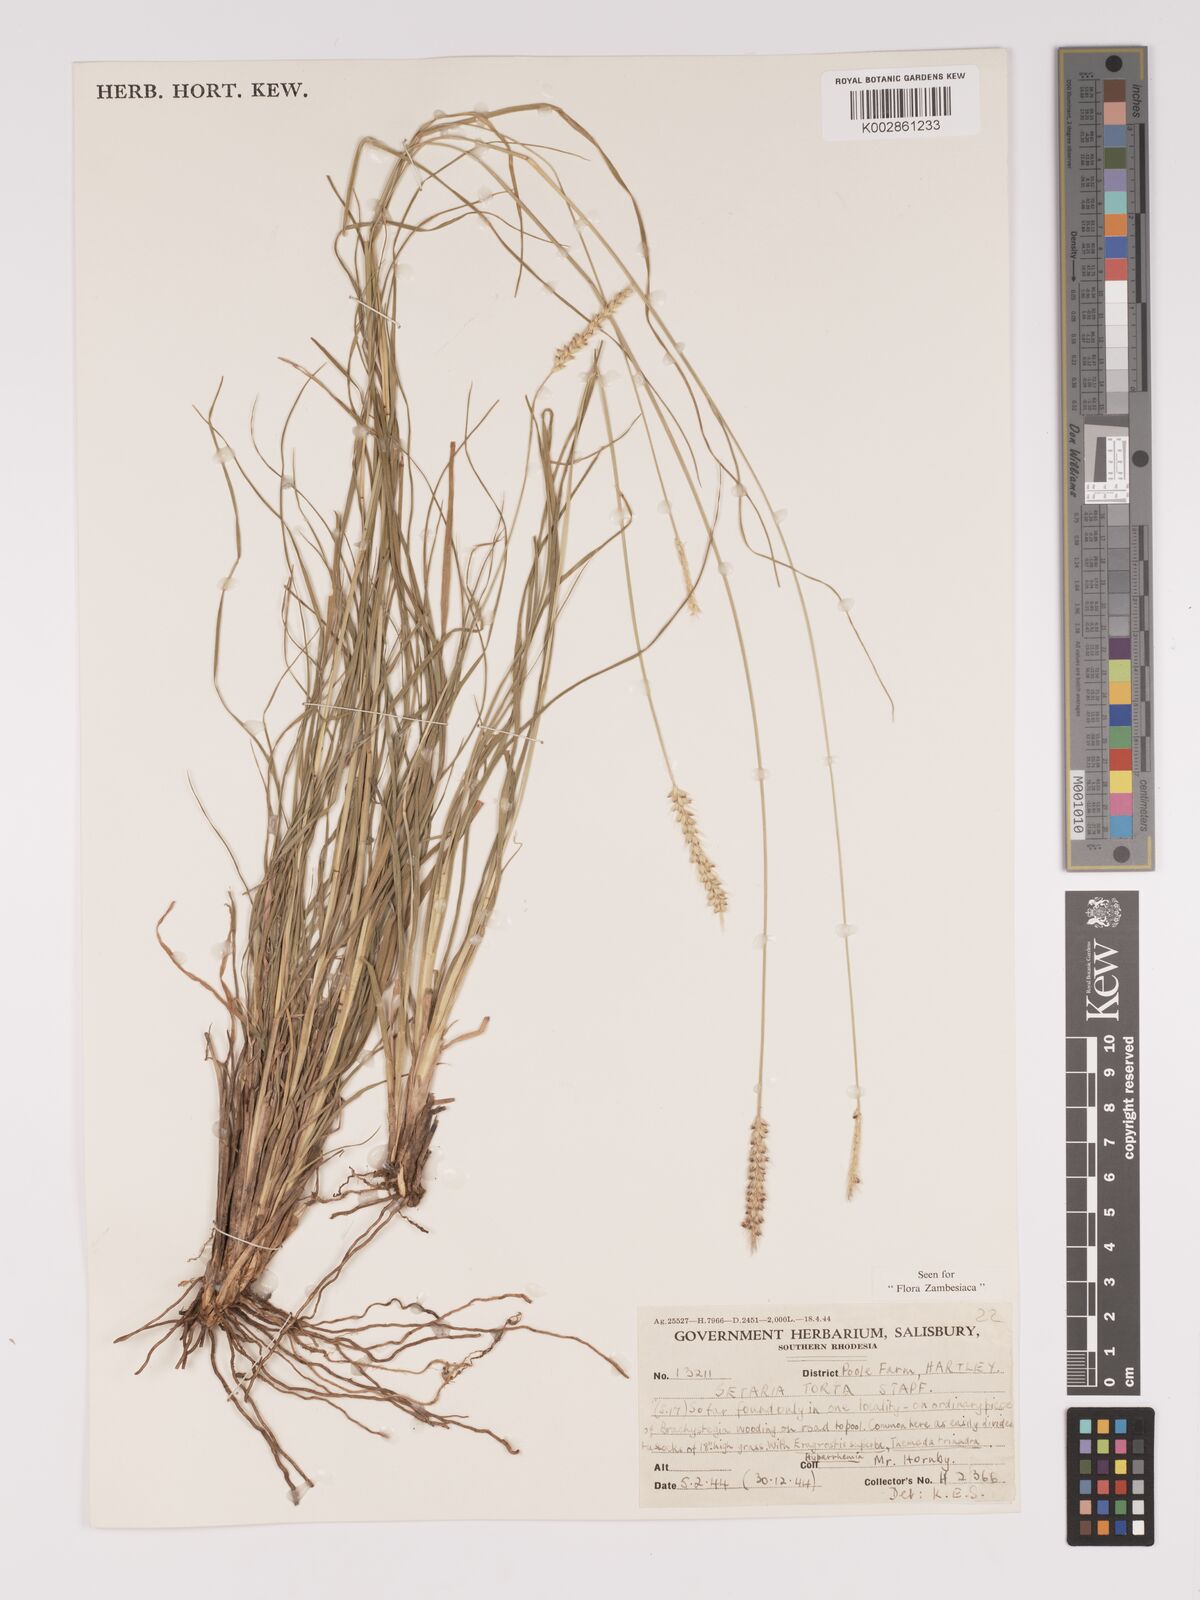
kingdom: Plantae
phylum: Tracheophyta
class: Liliopsida
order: Poales
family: Poaceae
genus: Setaria
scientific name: Setaria sphacelata
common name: African bristlegrass
